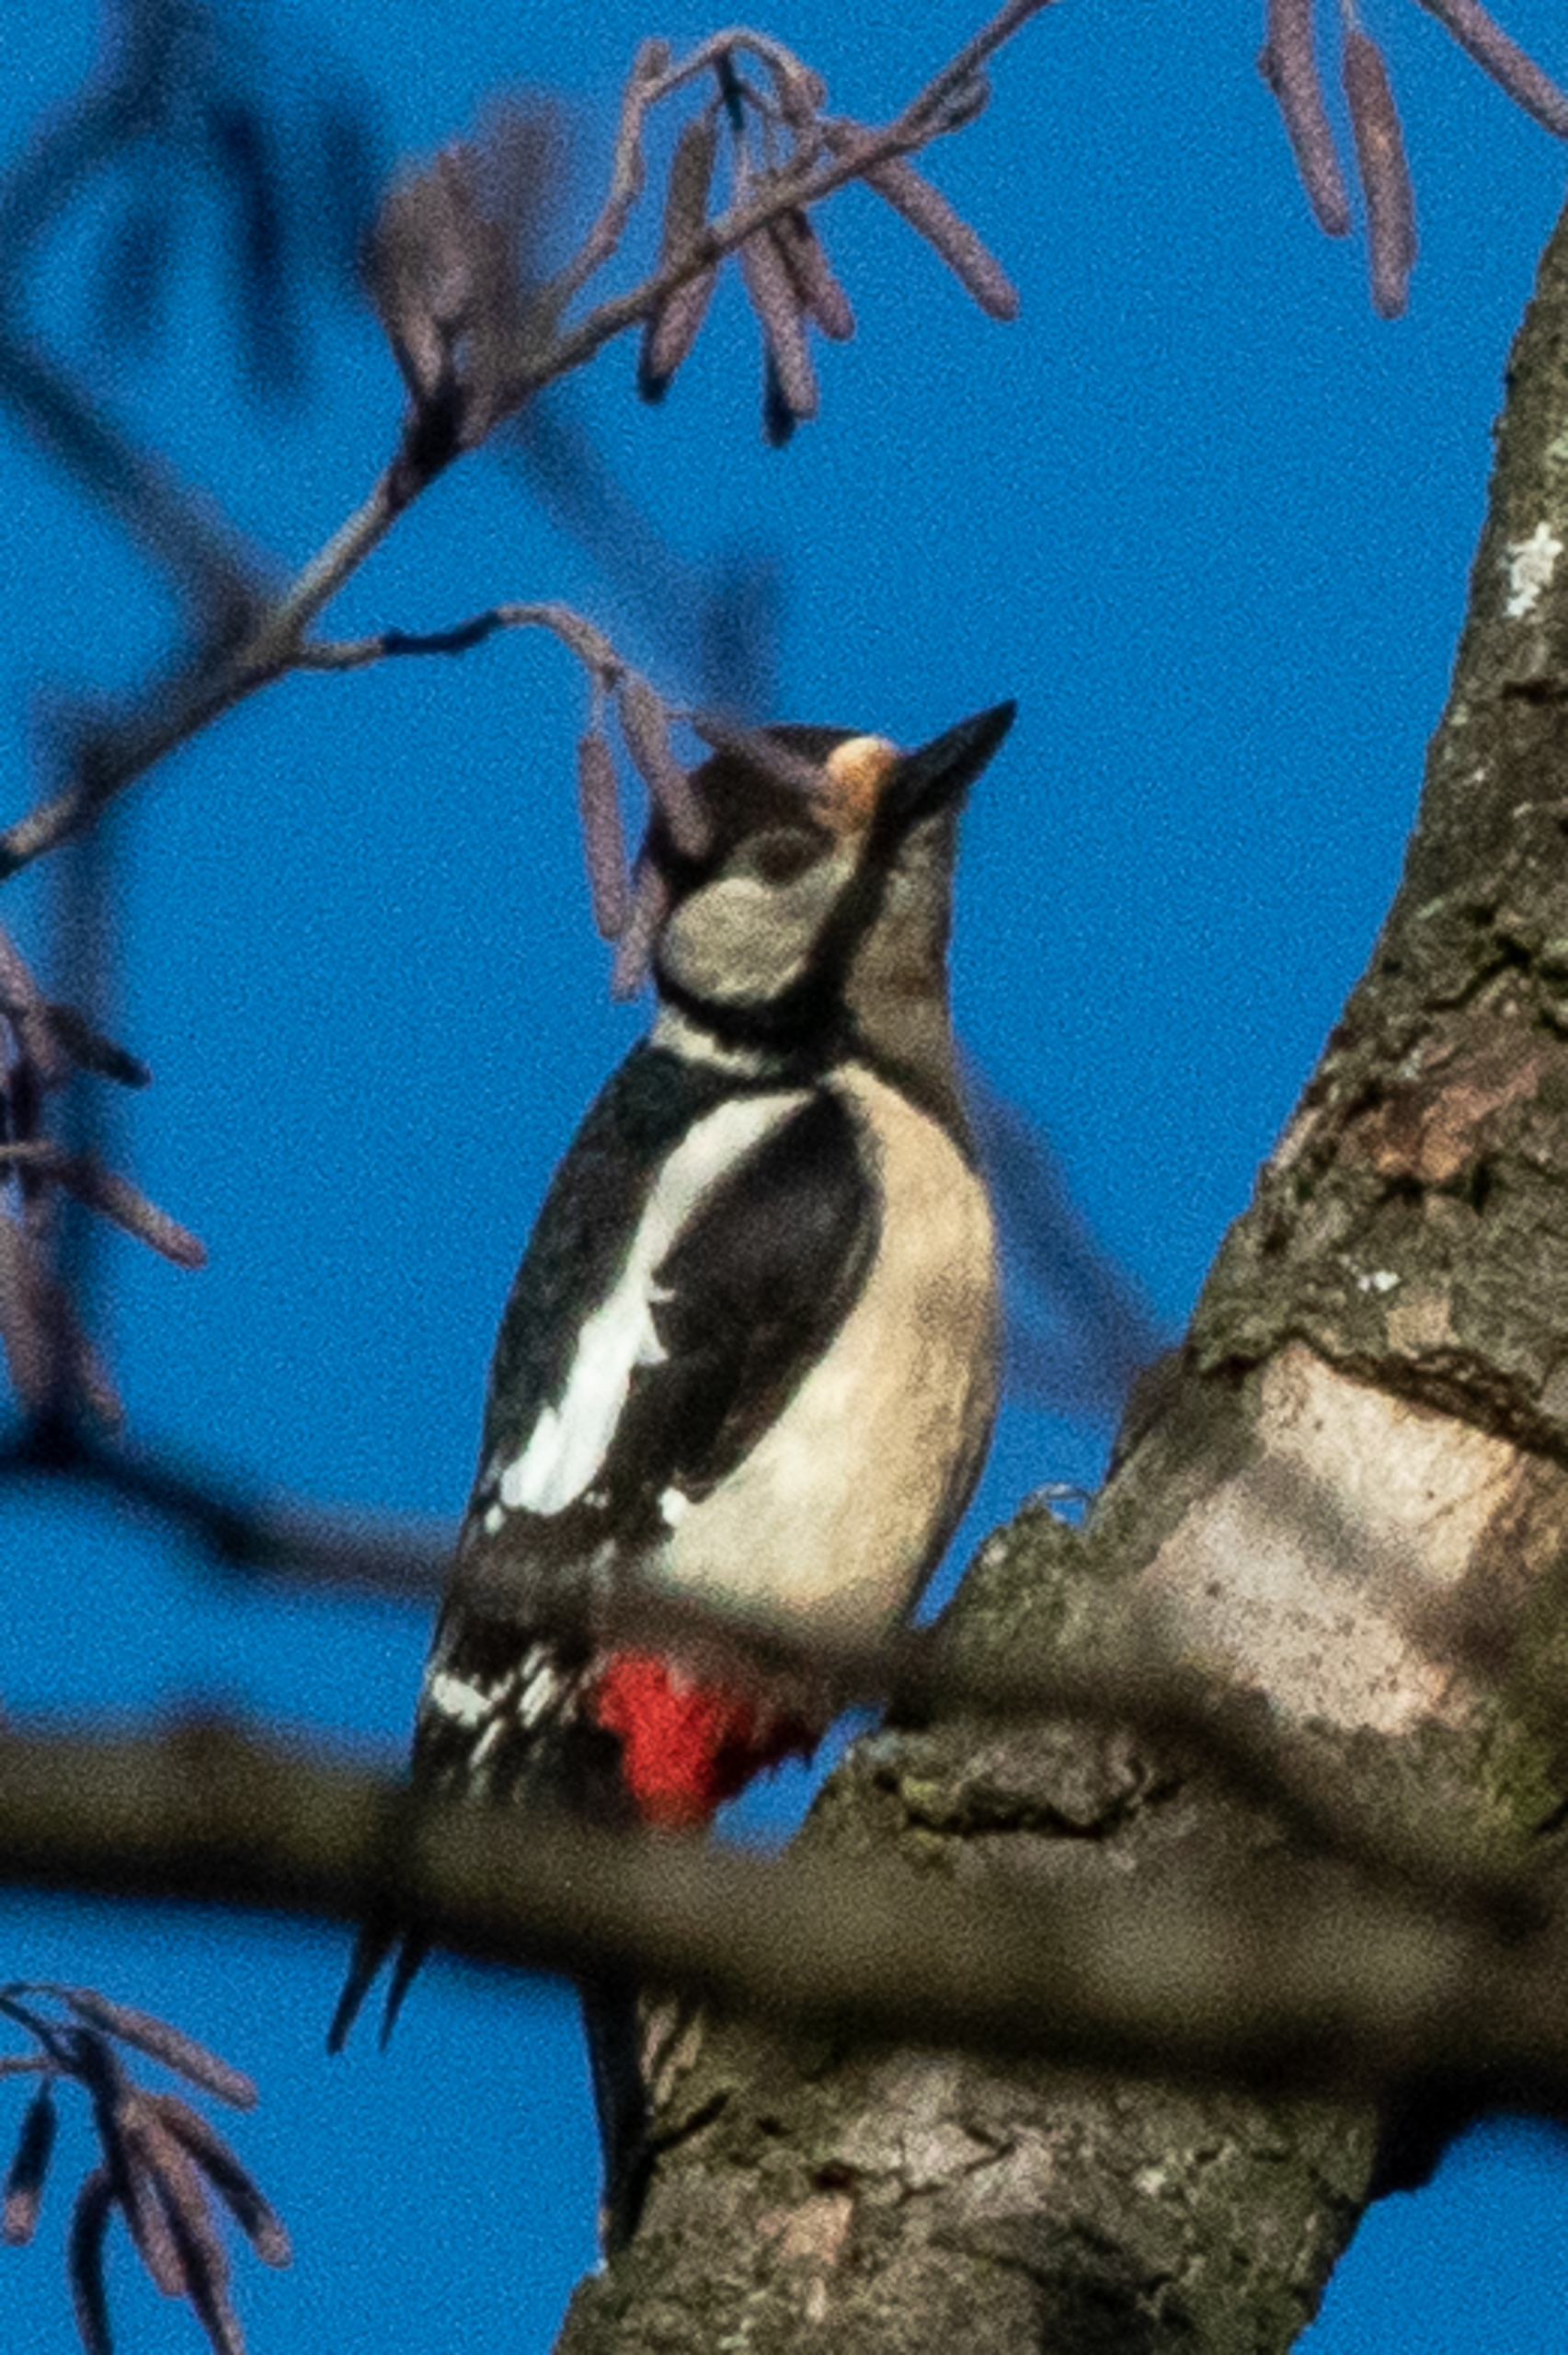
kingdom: Animalia
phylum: Chordata
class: Aves
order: Piciformes
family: Picidae
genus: Dendrocopos
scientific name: Dendrocopos major
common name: Stor flagspætte
